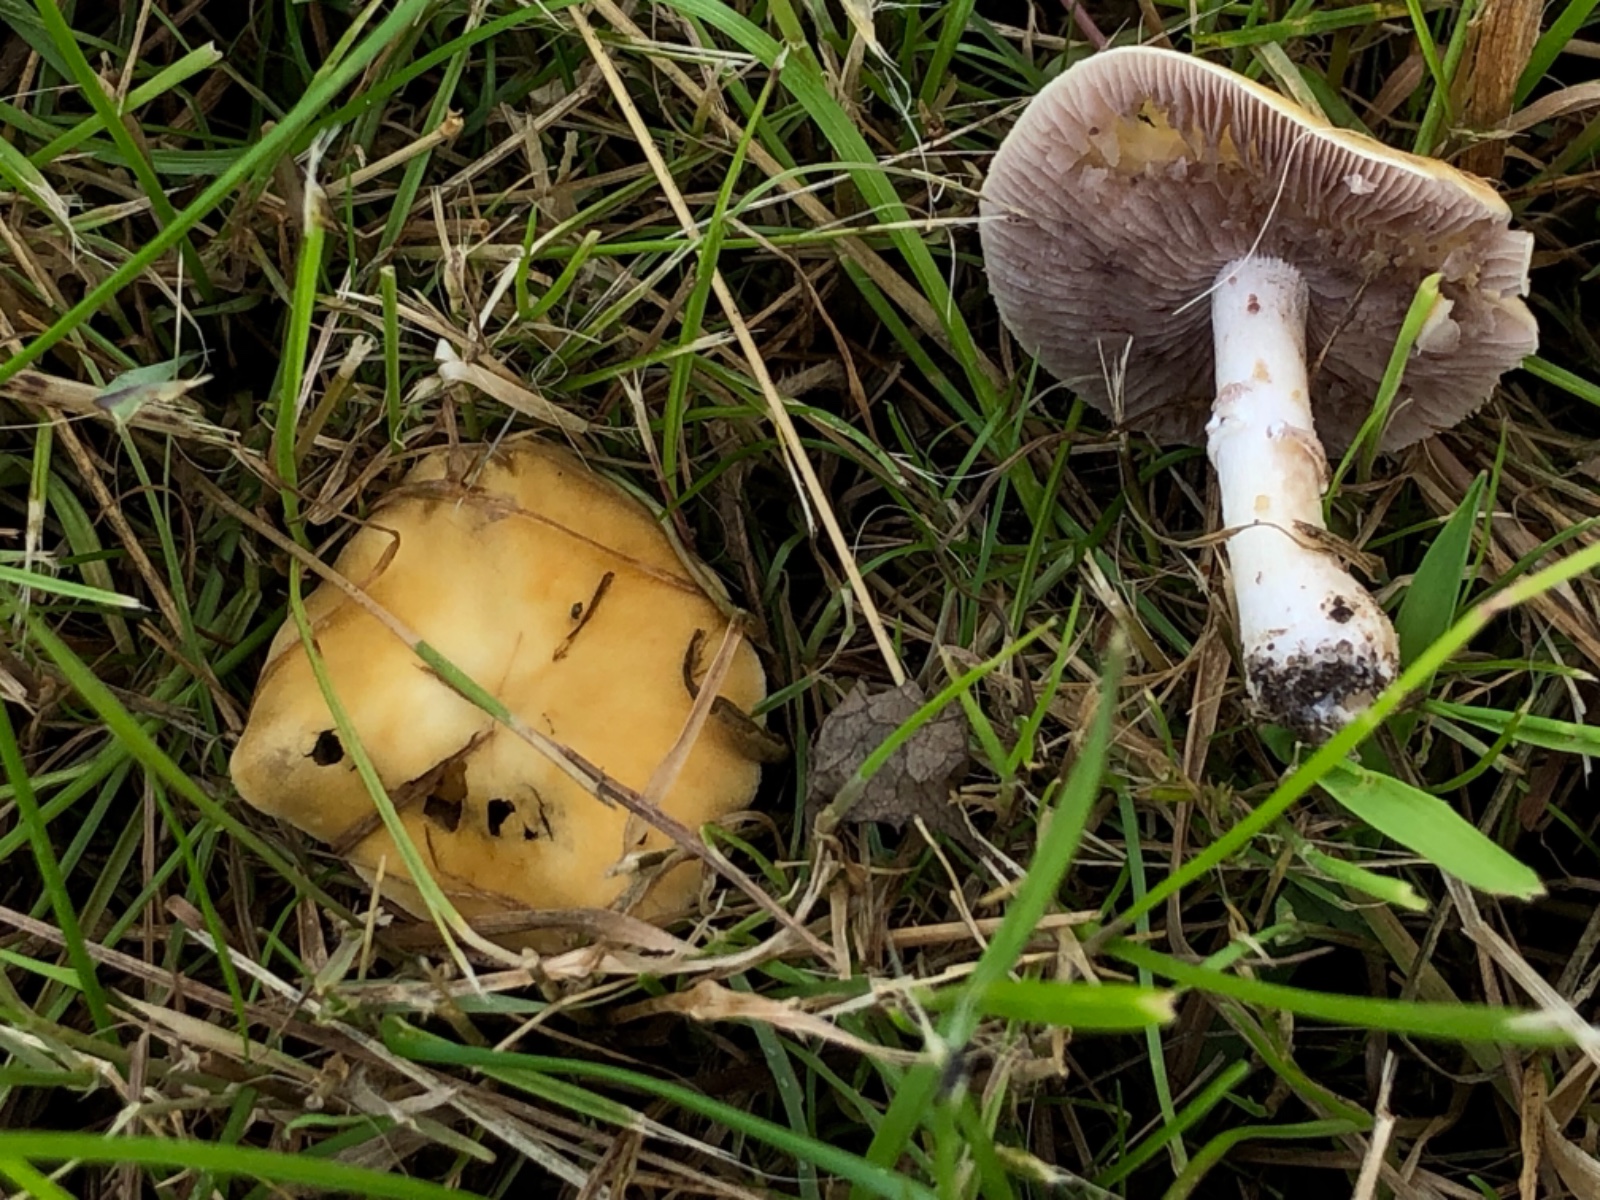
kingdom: Fungi
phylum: Basidiomycota
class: Agaricomycetes
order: Agaricales
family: Hymenogastraceae
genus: Psilocybe
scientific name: Psilocybe coronilla
